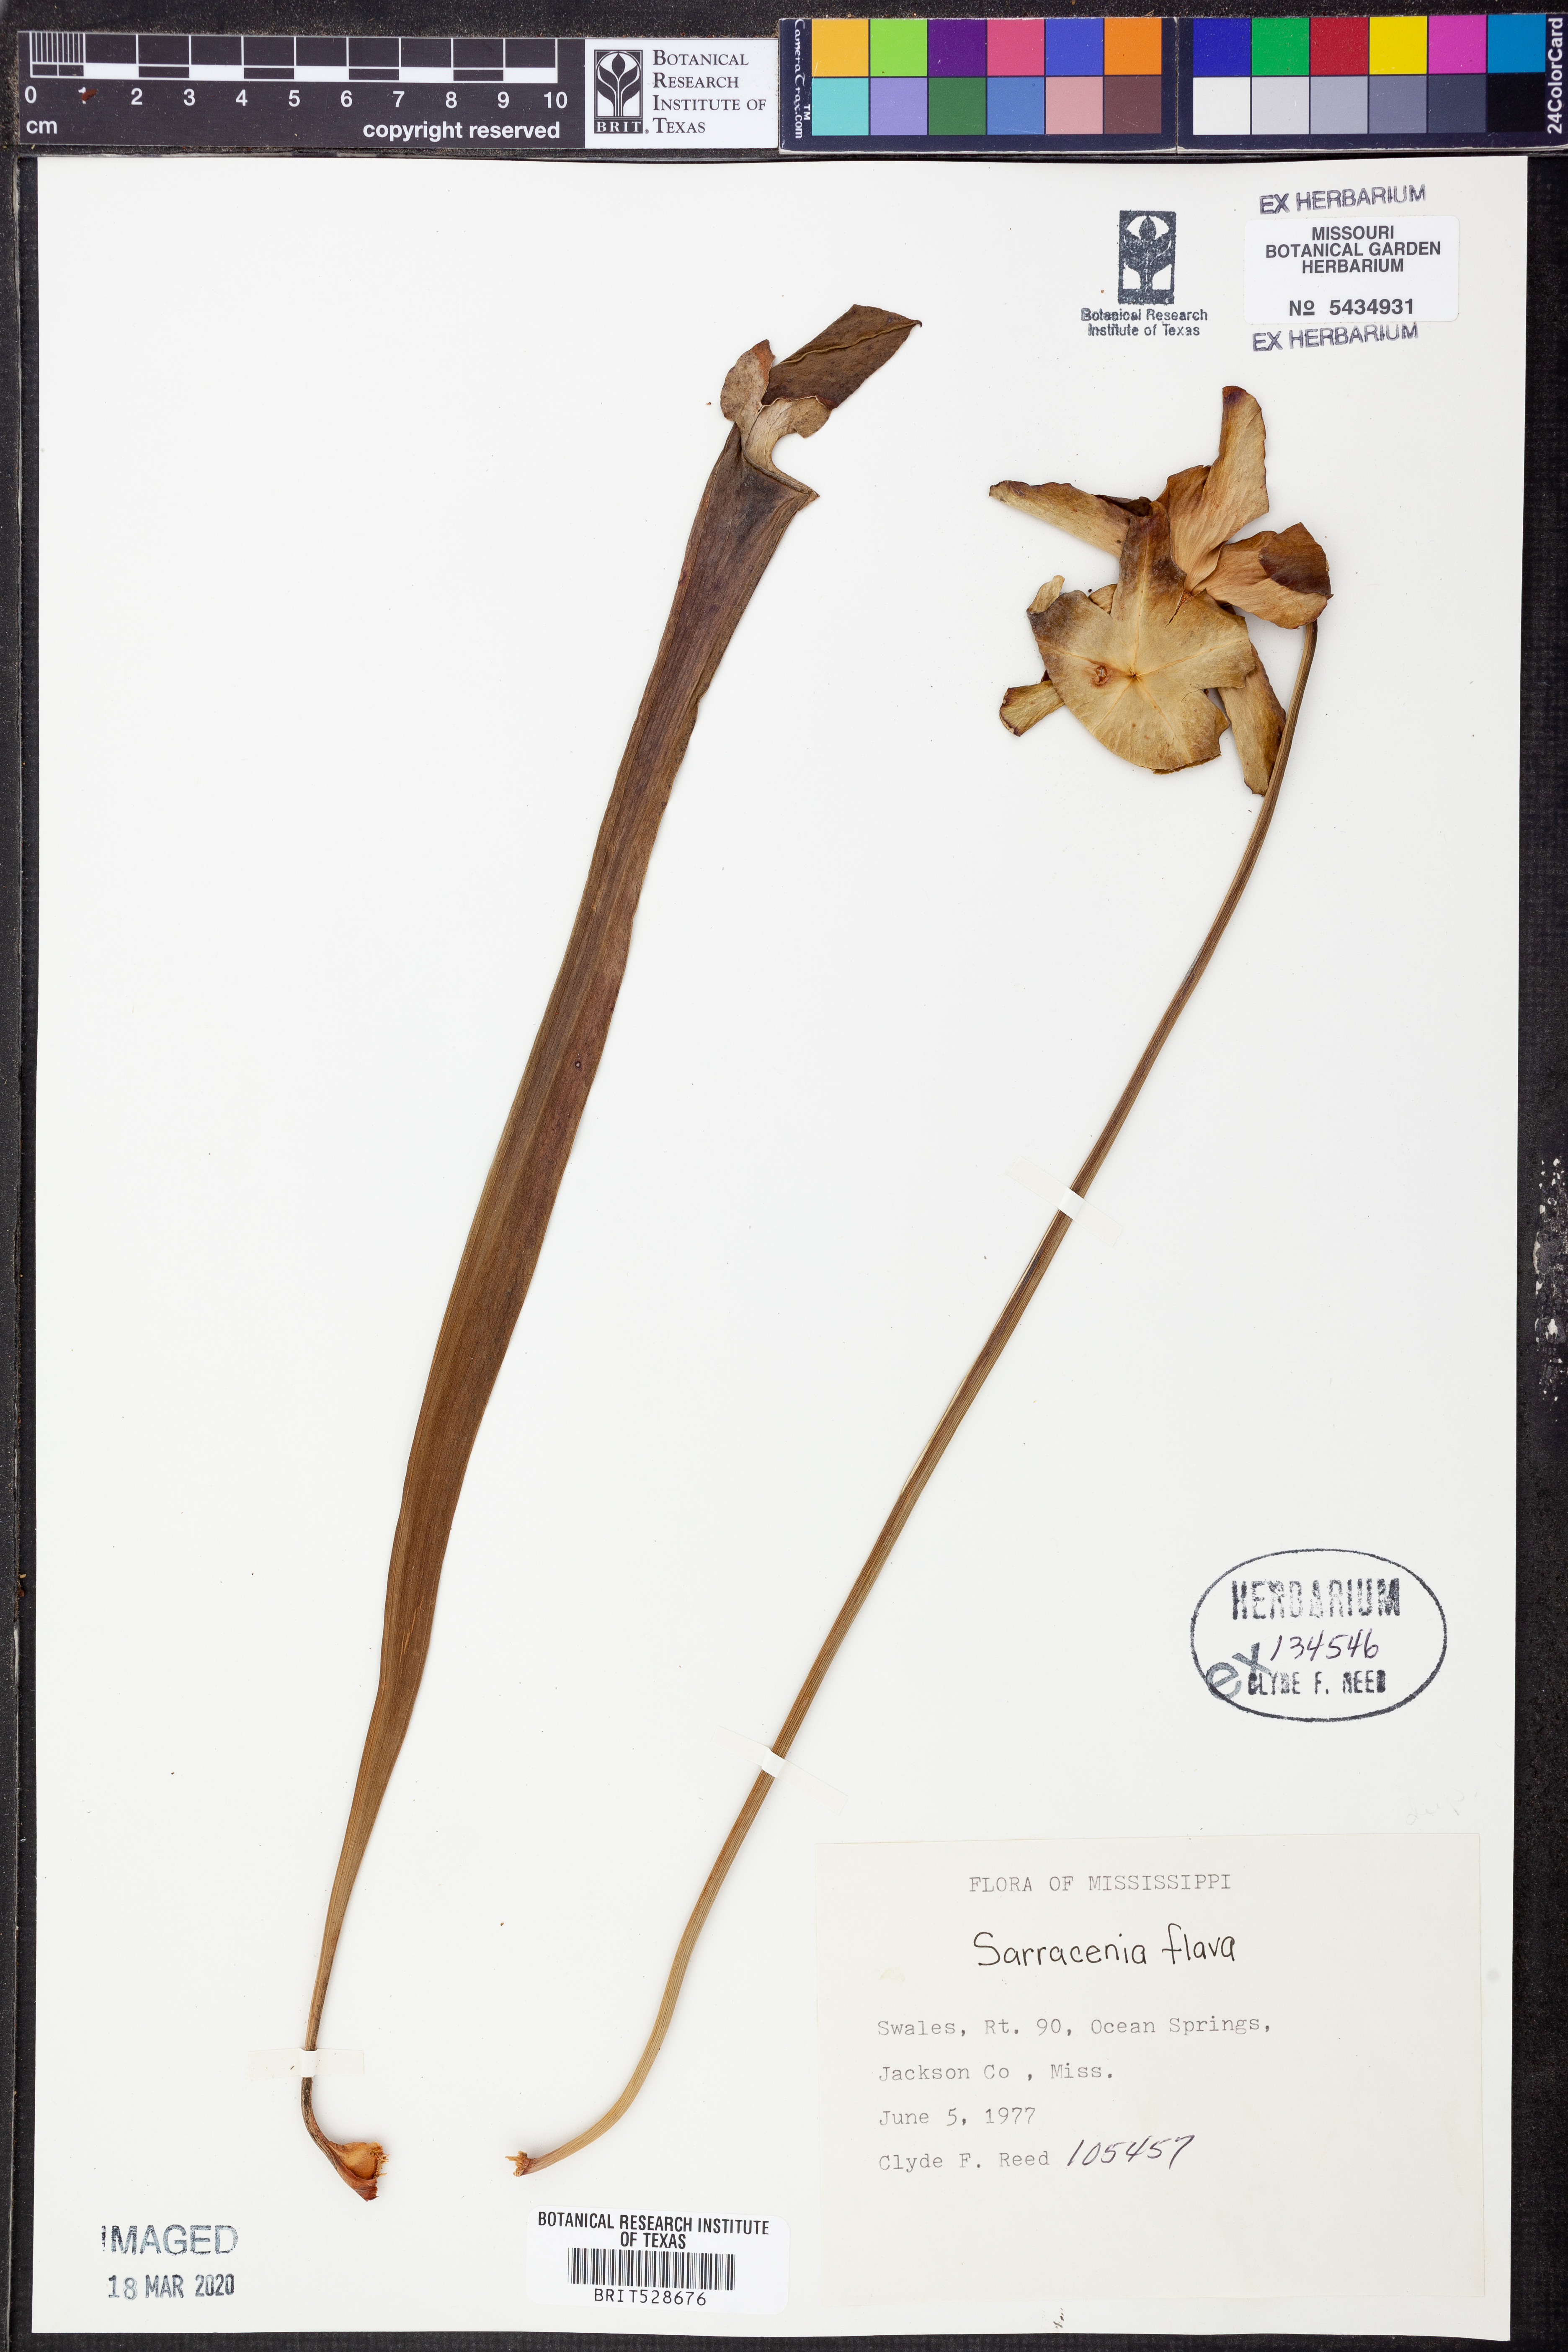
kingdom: Plantae
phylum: Tracheophyta
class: Magnoliopsida
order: Ericales
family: Sarraceniaceae
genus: Sarracenia
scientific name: Sarracenia flava
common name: Trumpets
